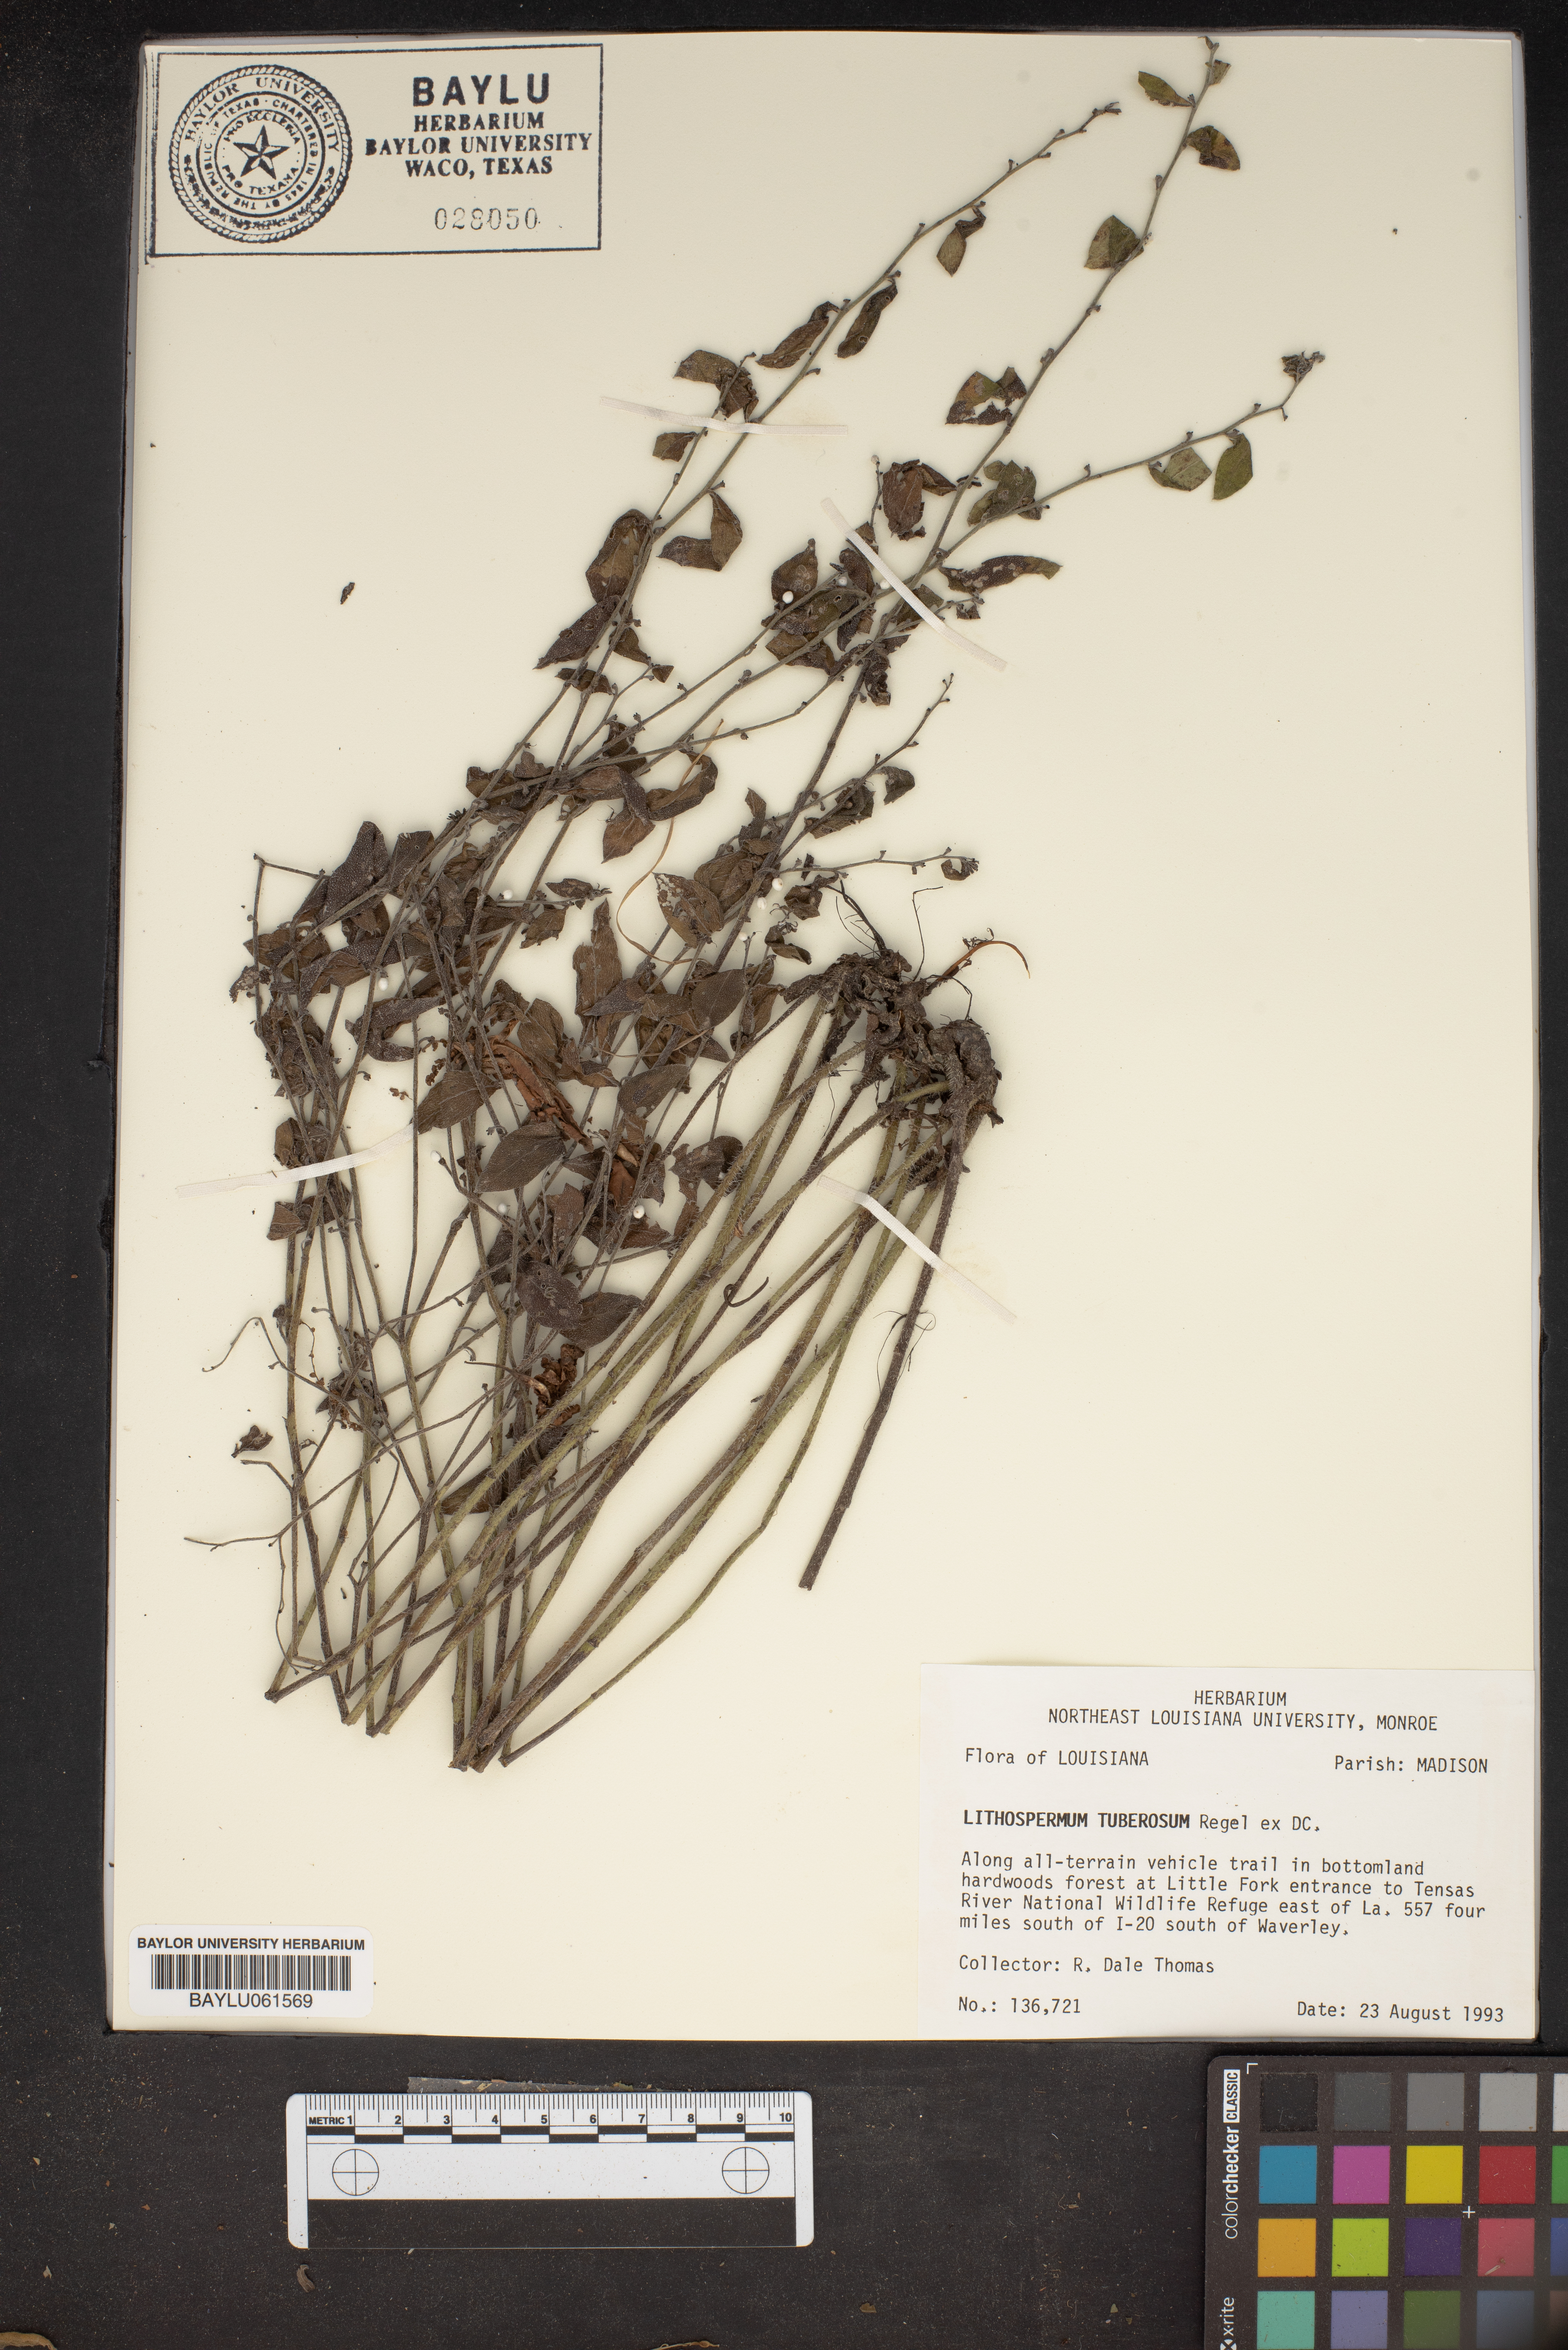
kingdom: Plantae
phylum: Tracheophyta
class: Magnoliopsida
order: Boraginales
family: Boraginaceae
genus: Lithospermum
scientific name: Lithospermum tuberosum
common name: Southern stoneseed
